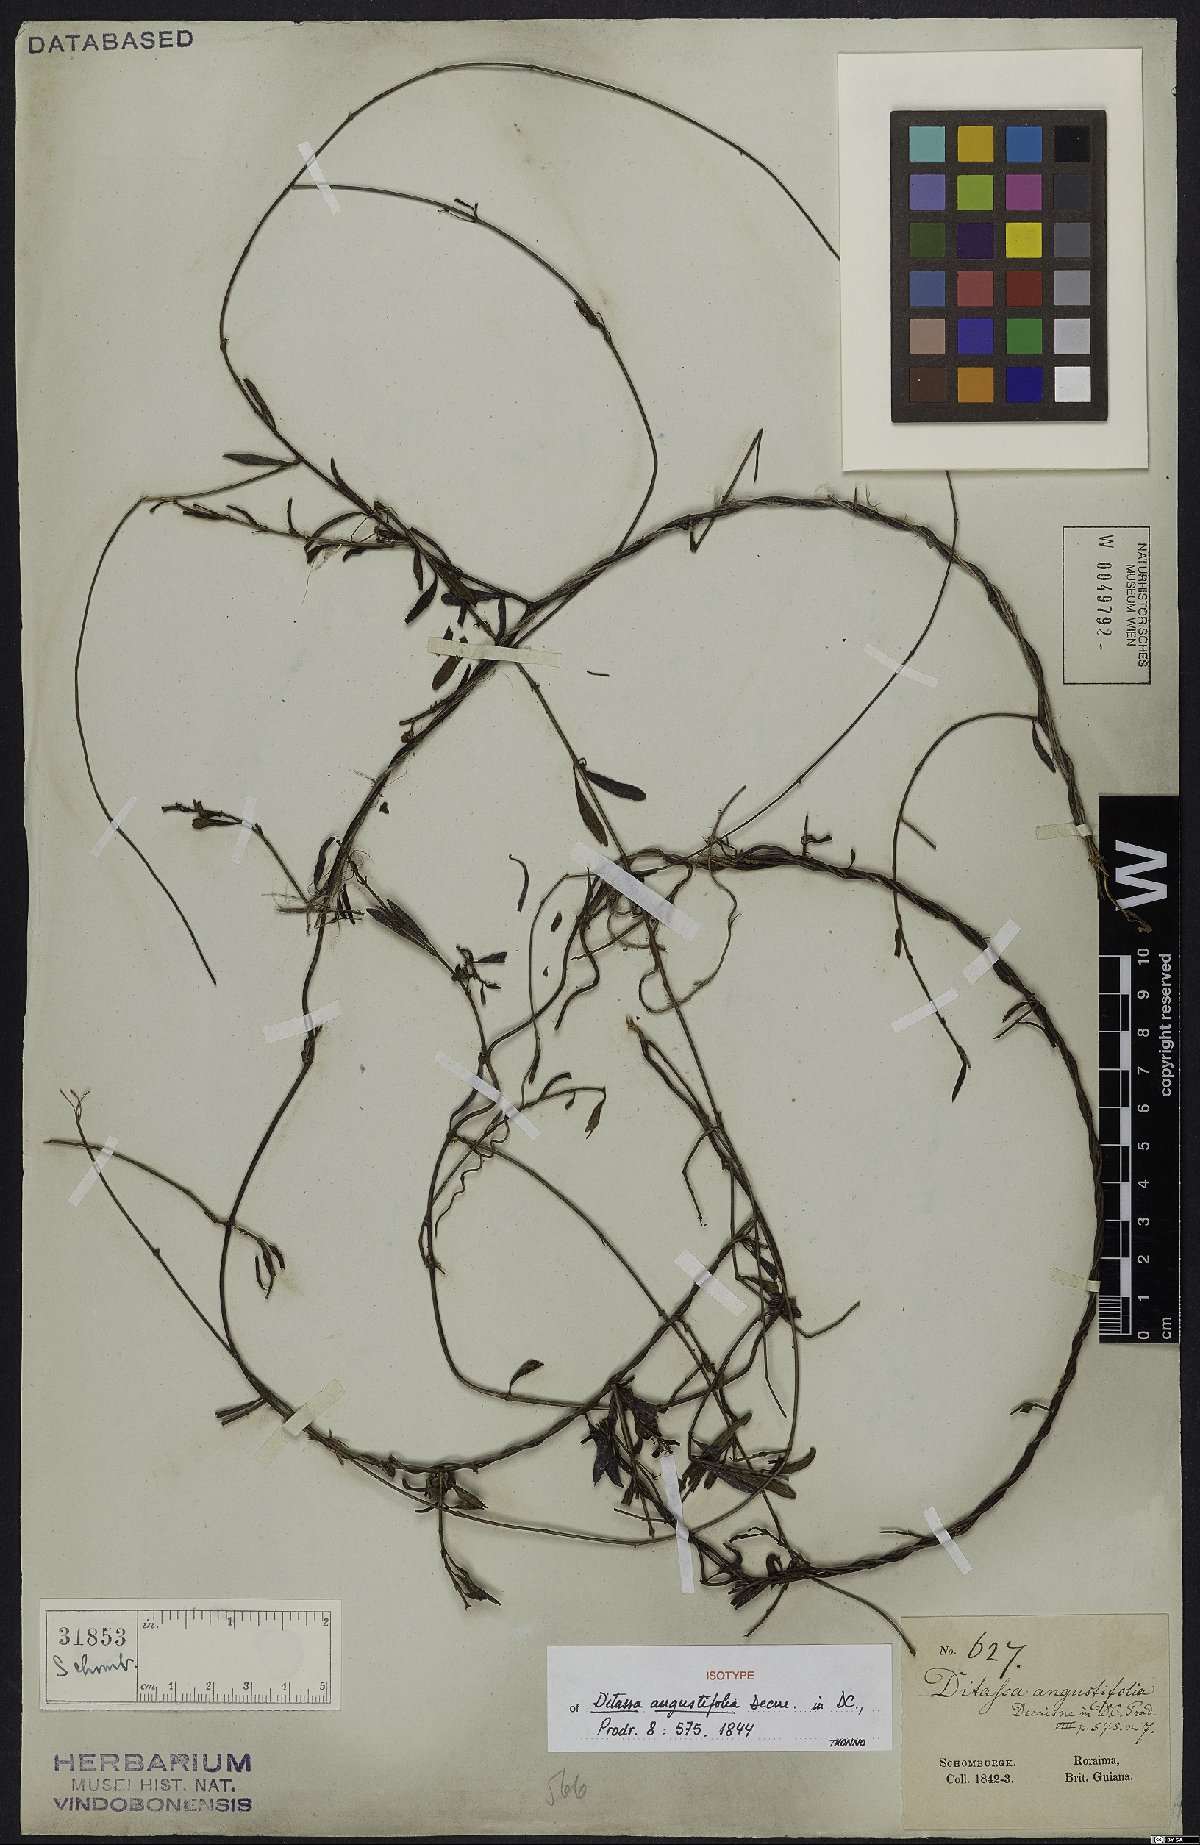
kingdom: Plantae
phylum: Tracheophyta
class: Magnoliopsida
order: Gentianales
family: Apocynaceae
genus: Ditassa
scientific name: Ditassa angustifolia
